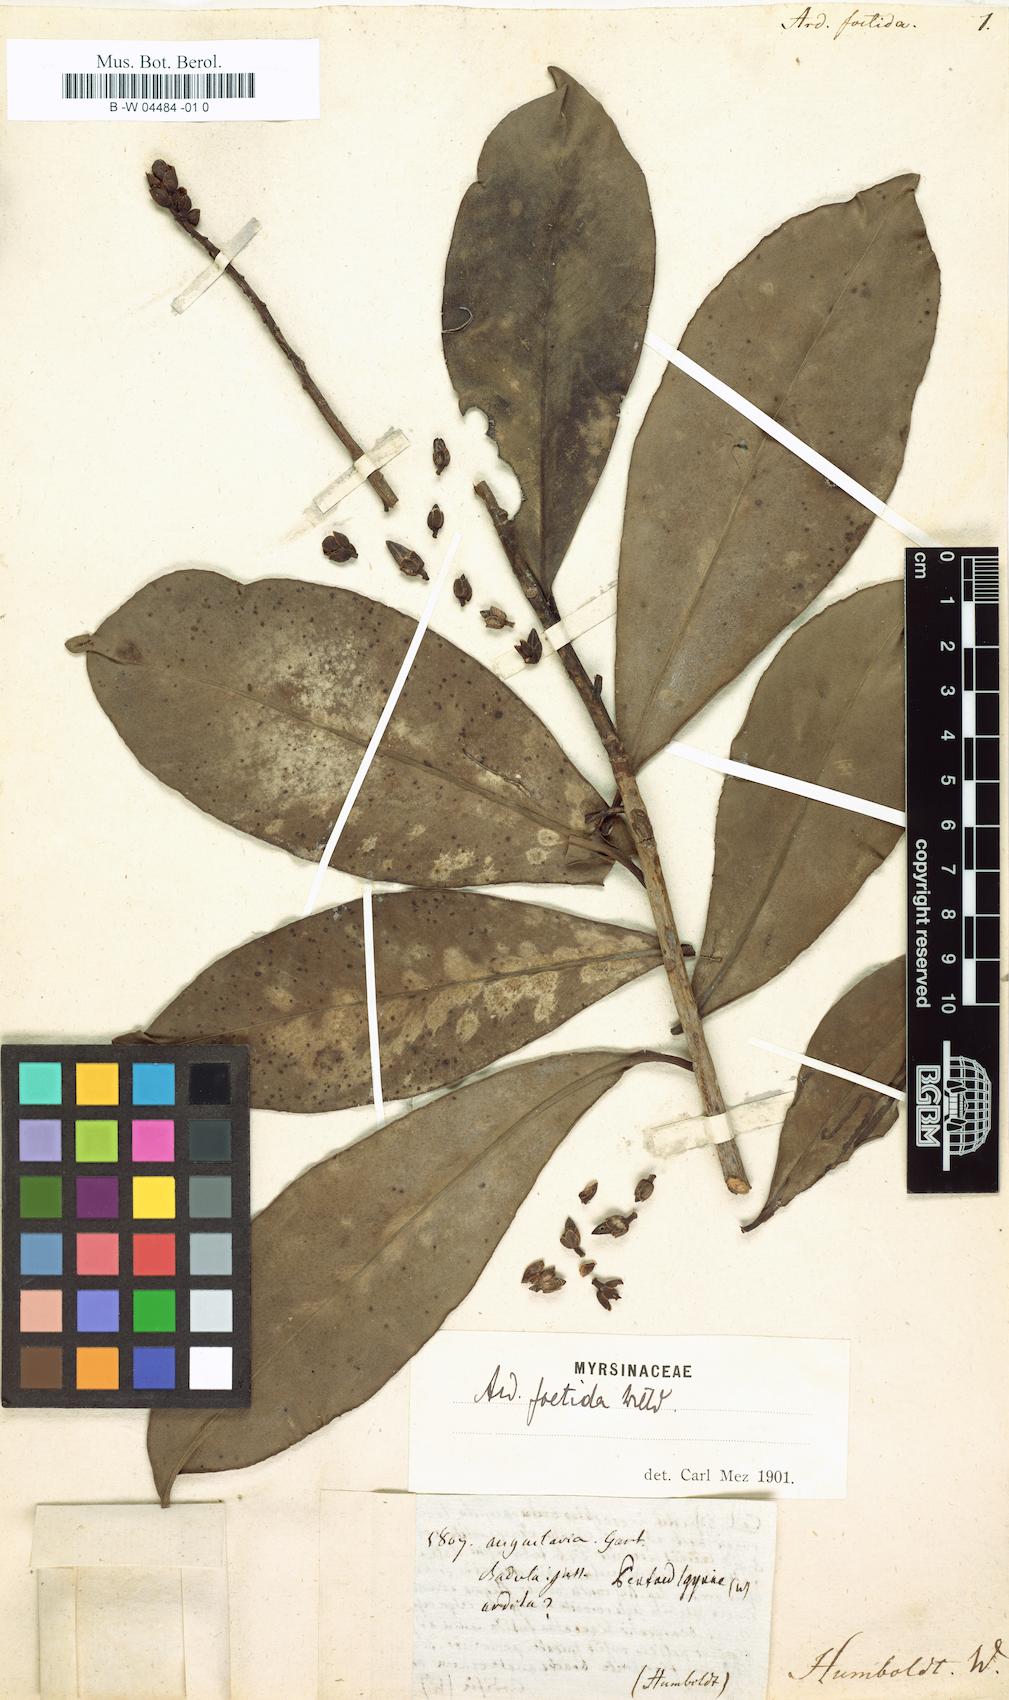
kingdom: Plantae
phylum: Tracheophyta
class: Magnoliopsida
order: Ericales
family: Primulaceae
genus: Ardisia
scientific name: Ardisia foetida
